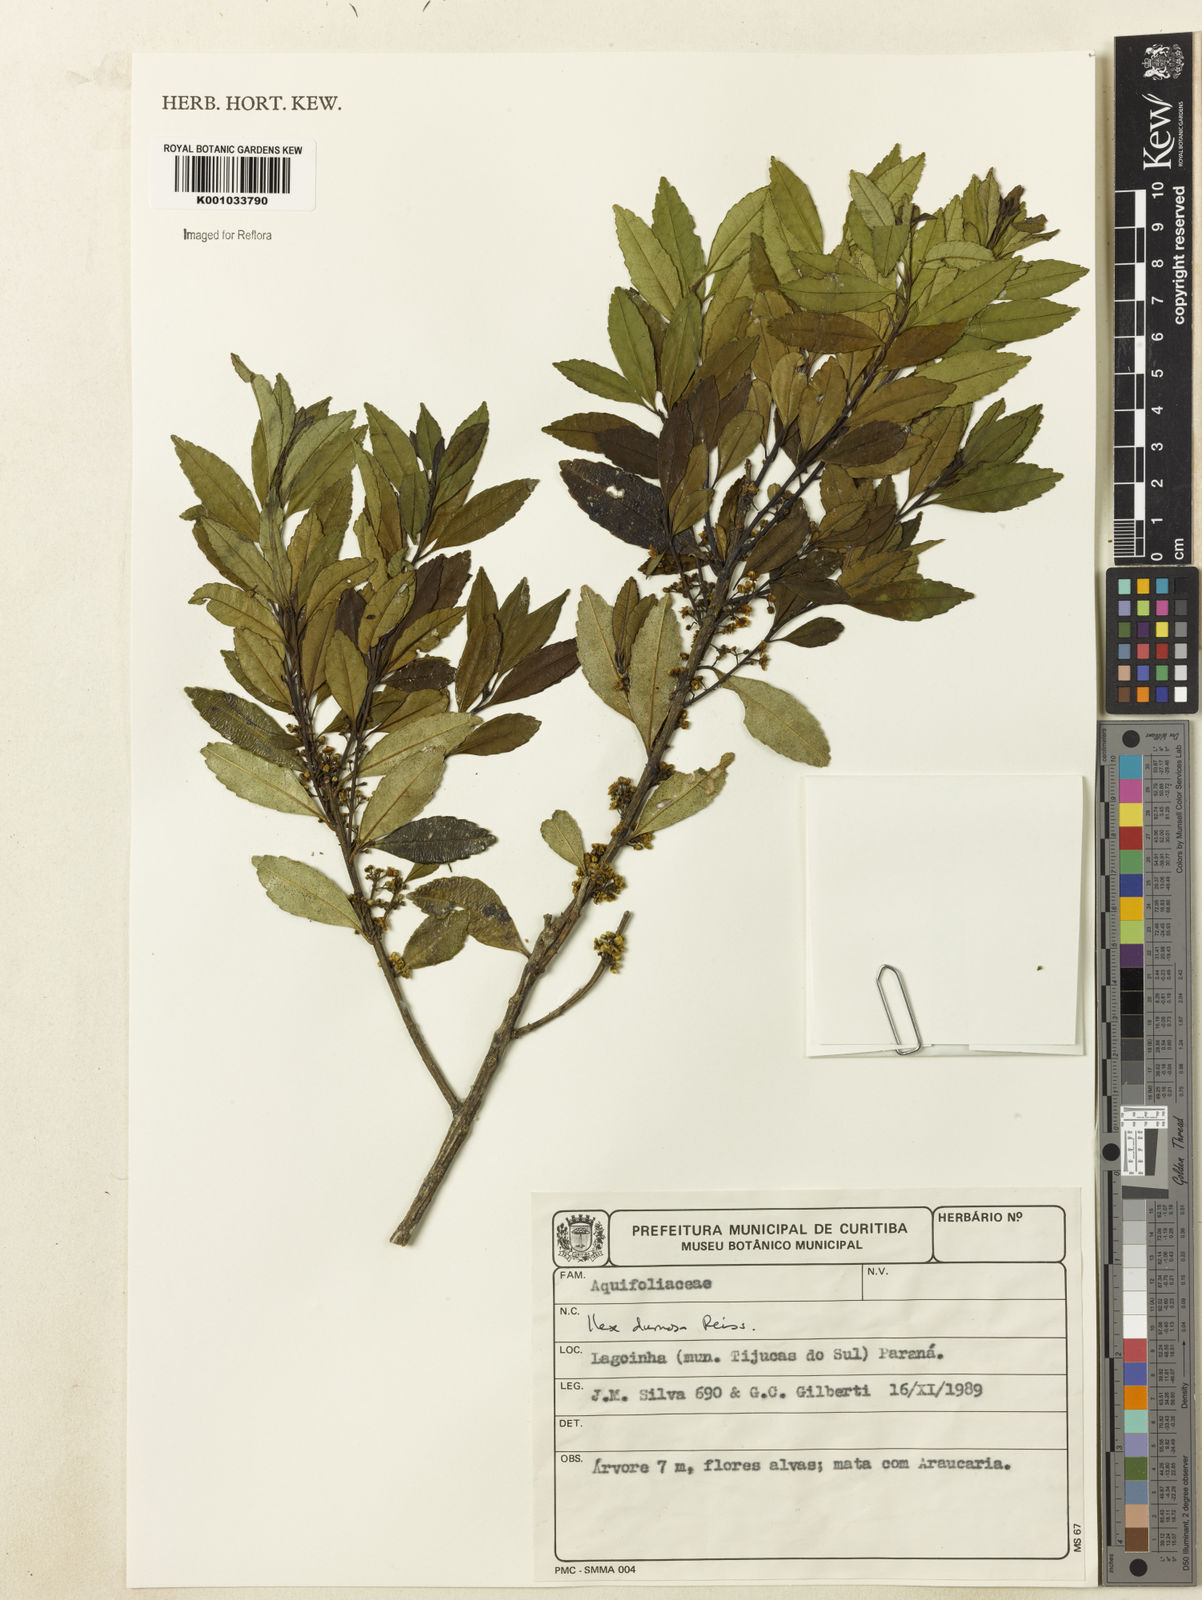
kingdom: Plantae
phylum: Tracheophyta
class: Magnoliopsida
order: Aquifoliales
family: Aquifoliaceae
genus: Ilex
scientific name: Ilex dumosa
